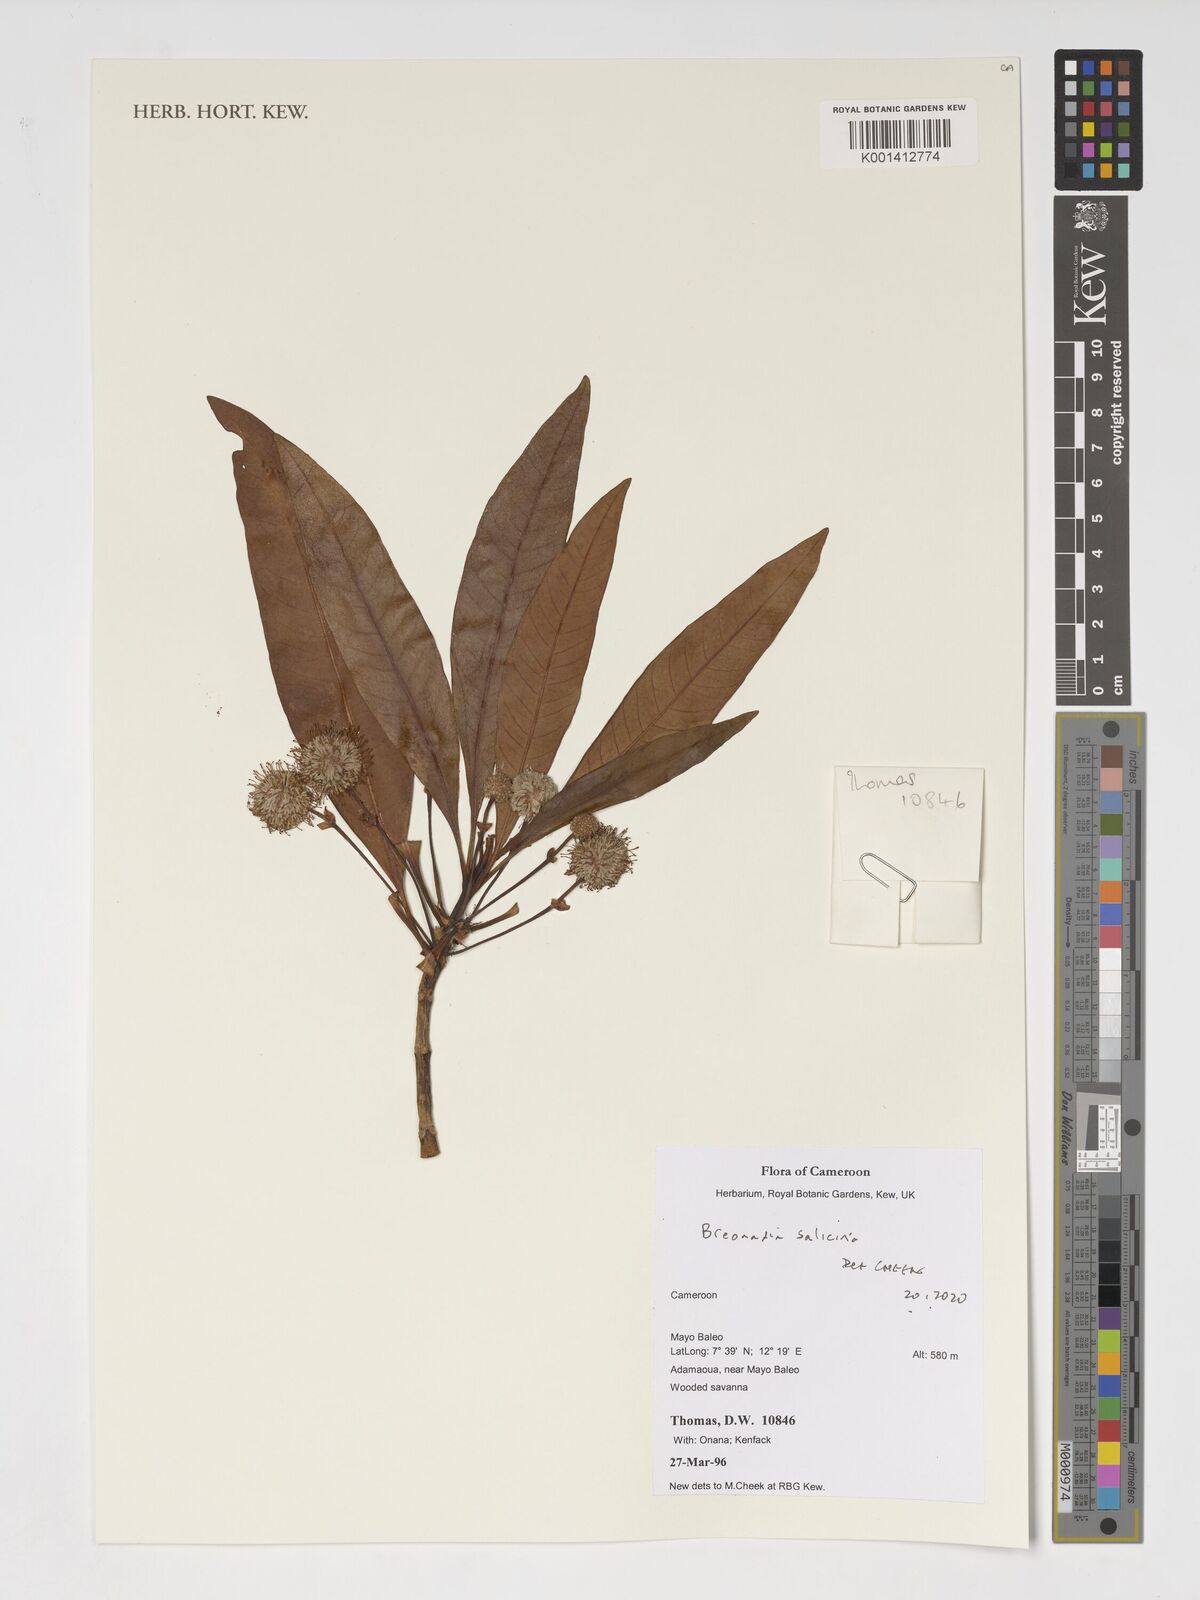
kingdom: Plantae
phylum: Tracheophyta
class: Magnoliopsida
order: Gentianales
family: Rubiaceae
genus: Breonadia
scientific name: Breonadia
